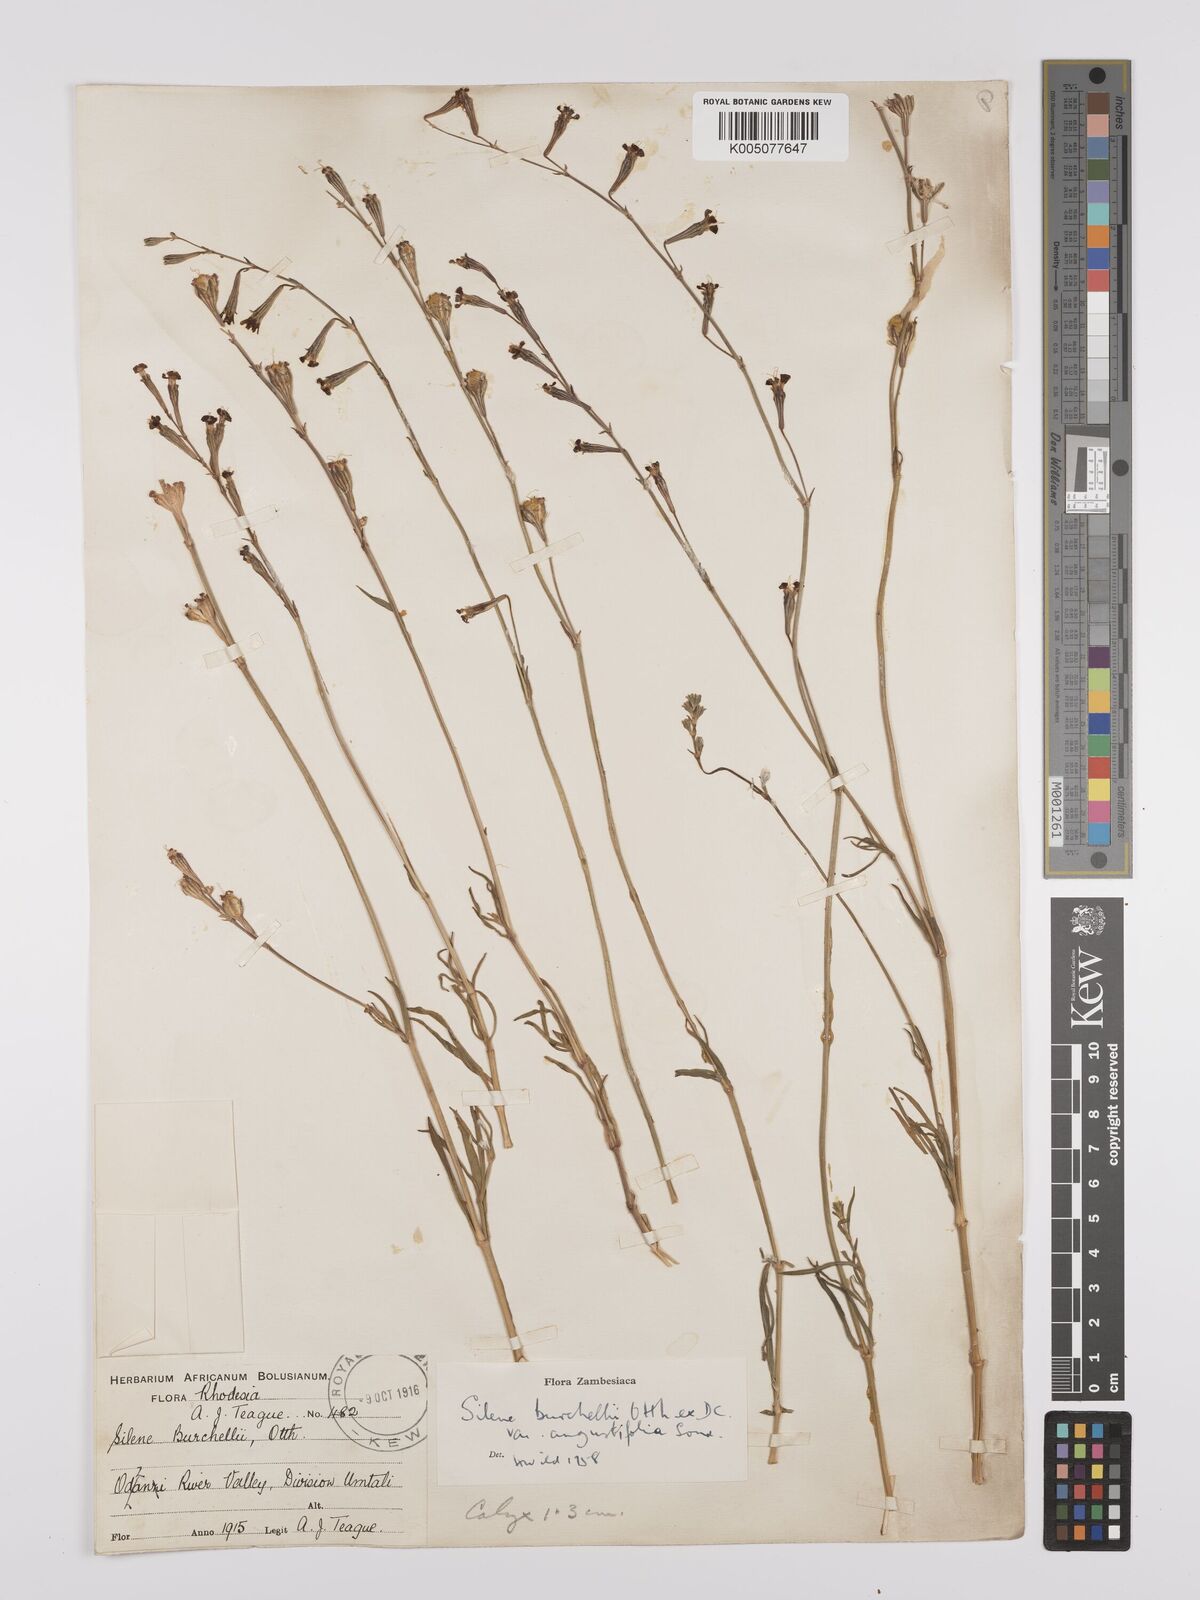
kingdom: Plantae
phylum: Tracheophyta
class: Magnoliopsida
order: Caryophyllales
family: Caryophyllaceae
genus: Silene
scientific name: Silene burchellii
